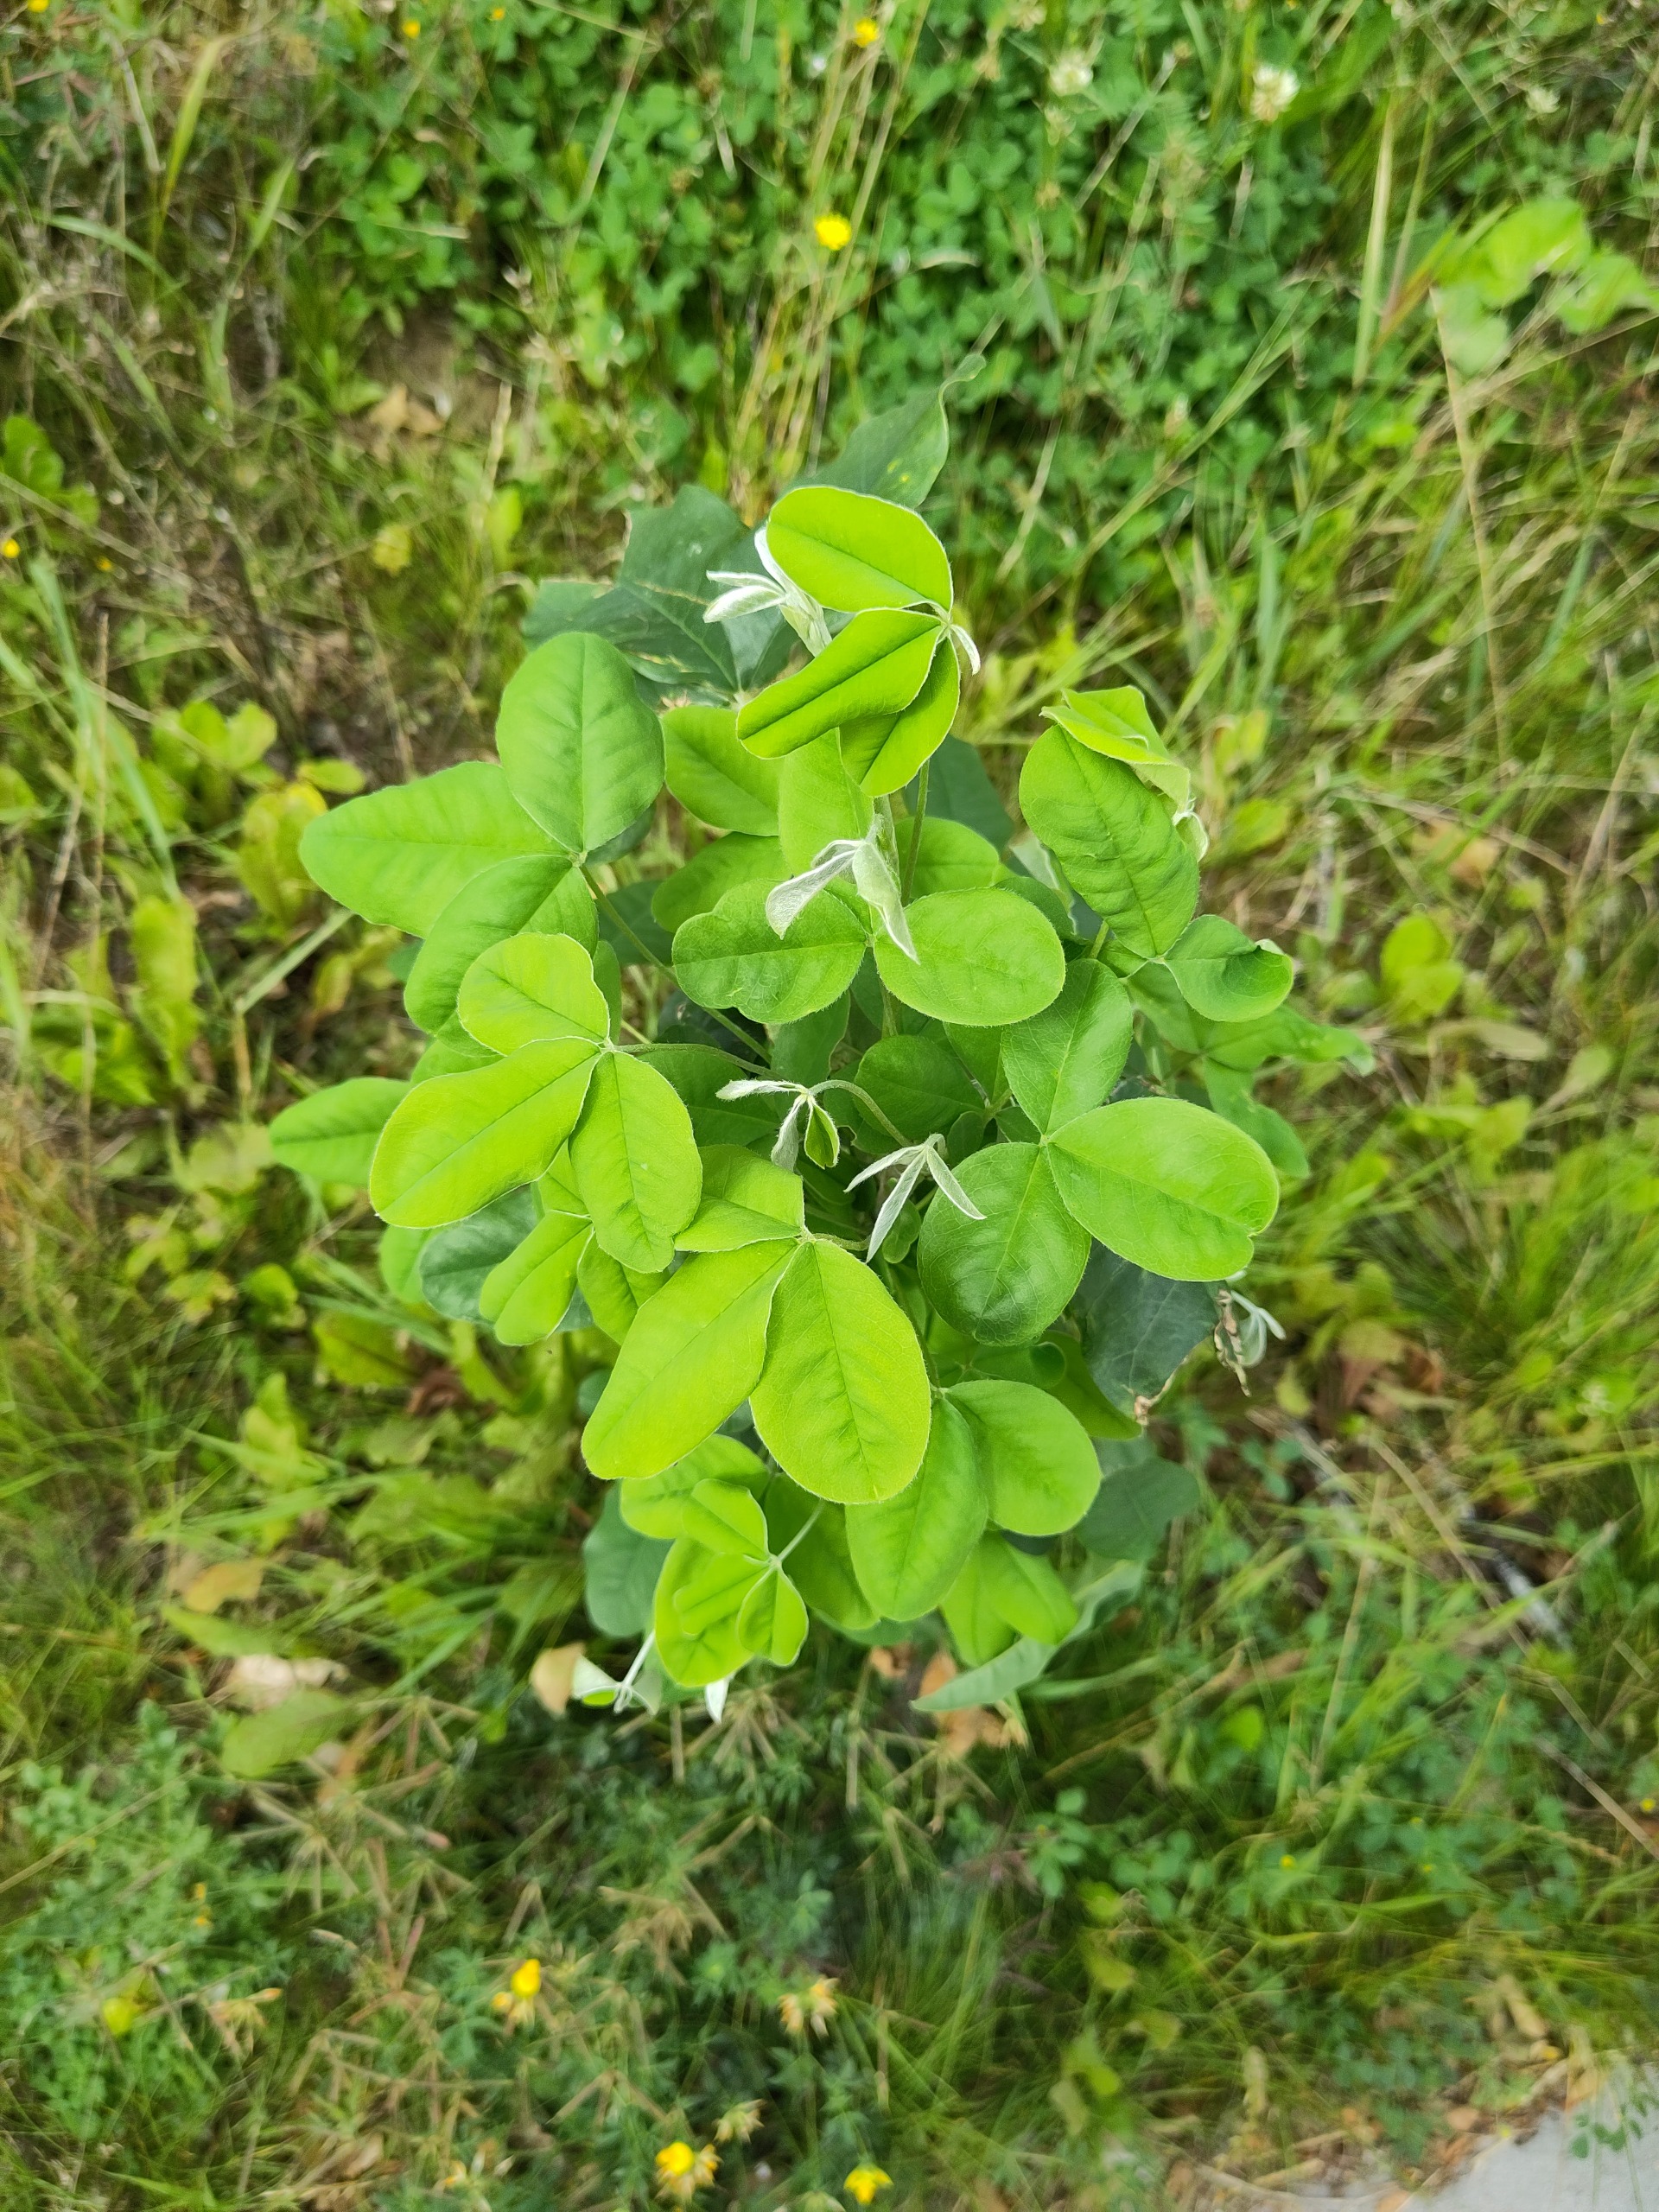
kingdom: Plantae
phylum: Tracheophyta
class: Magnoliopsida
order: Fabales
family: Fabaceae
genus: Laburnum
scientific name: Laburnum anagyroides
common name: Guldregn
